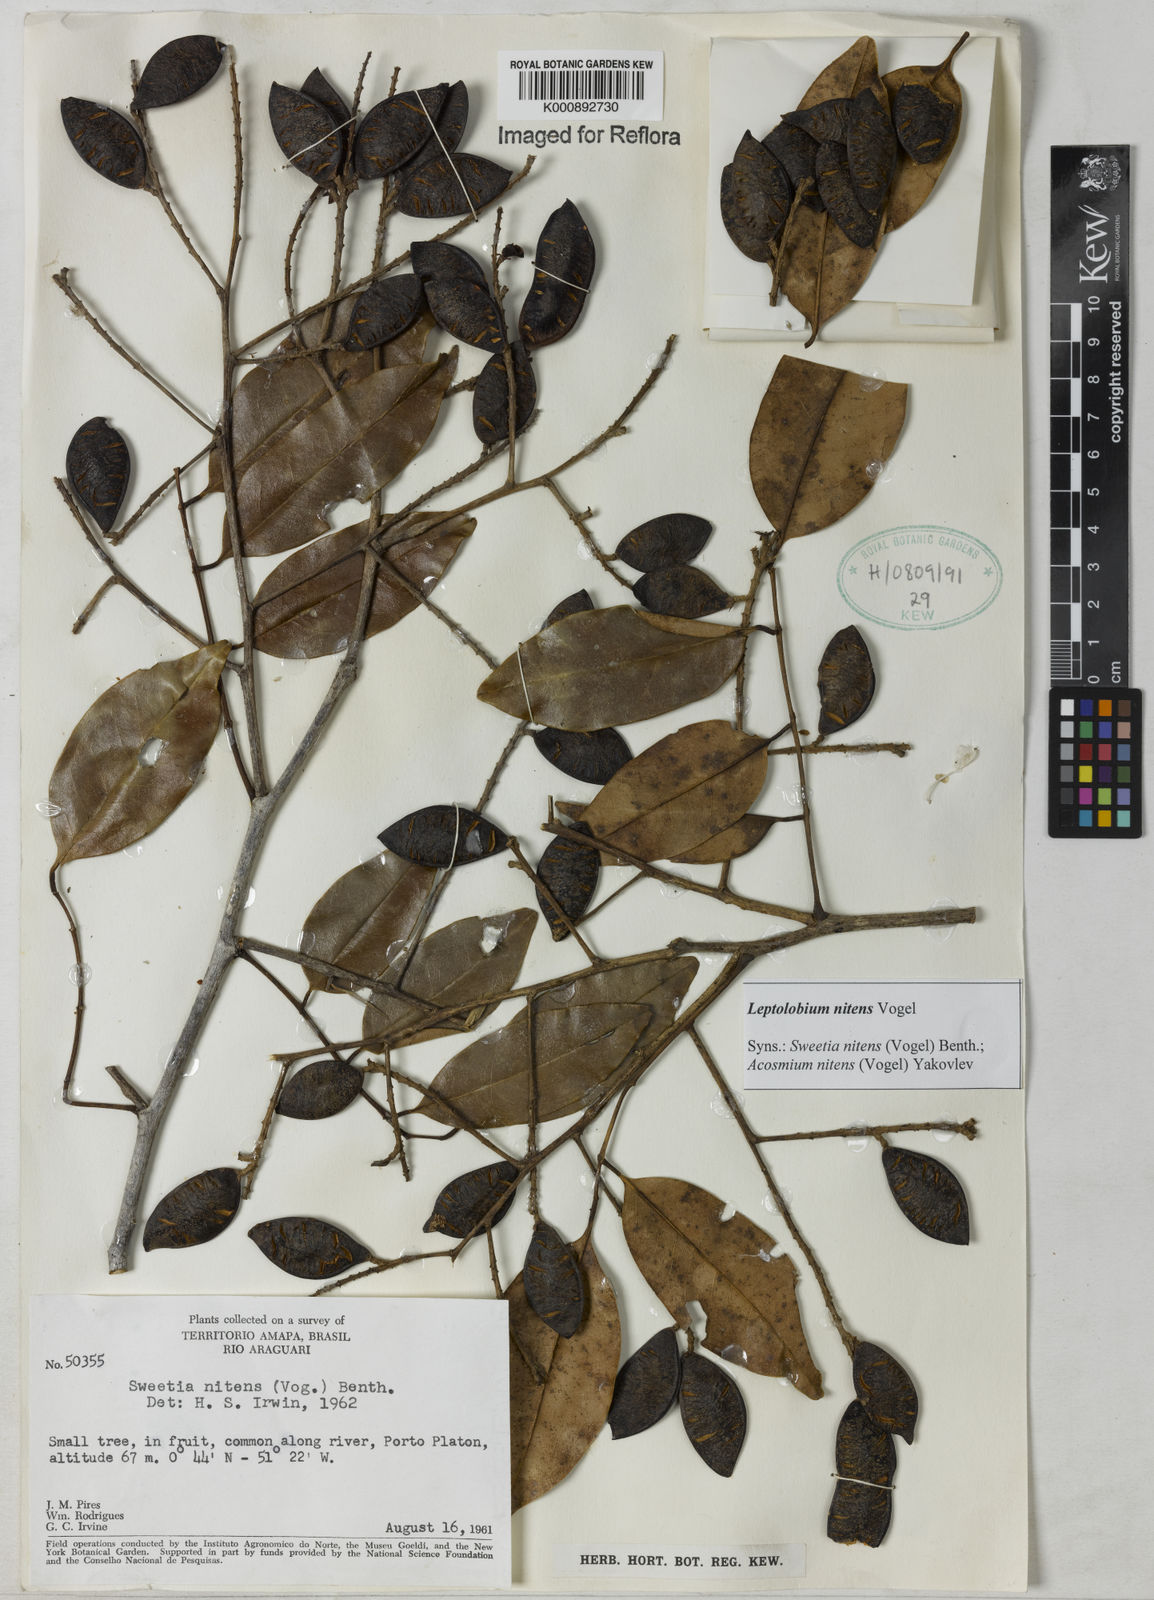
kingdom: Plantae
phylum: Tracheophyta
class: Magnoliopsida
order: Fabales
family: Fabaceae
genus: Leptolobium
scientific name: Leptolobium nitens
